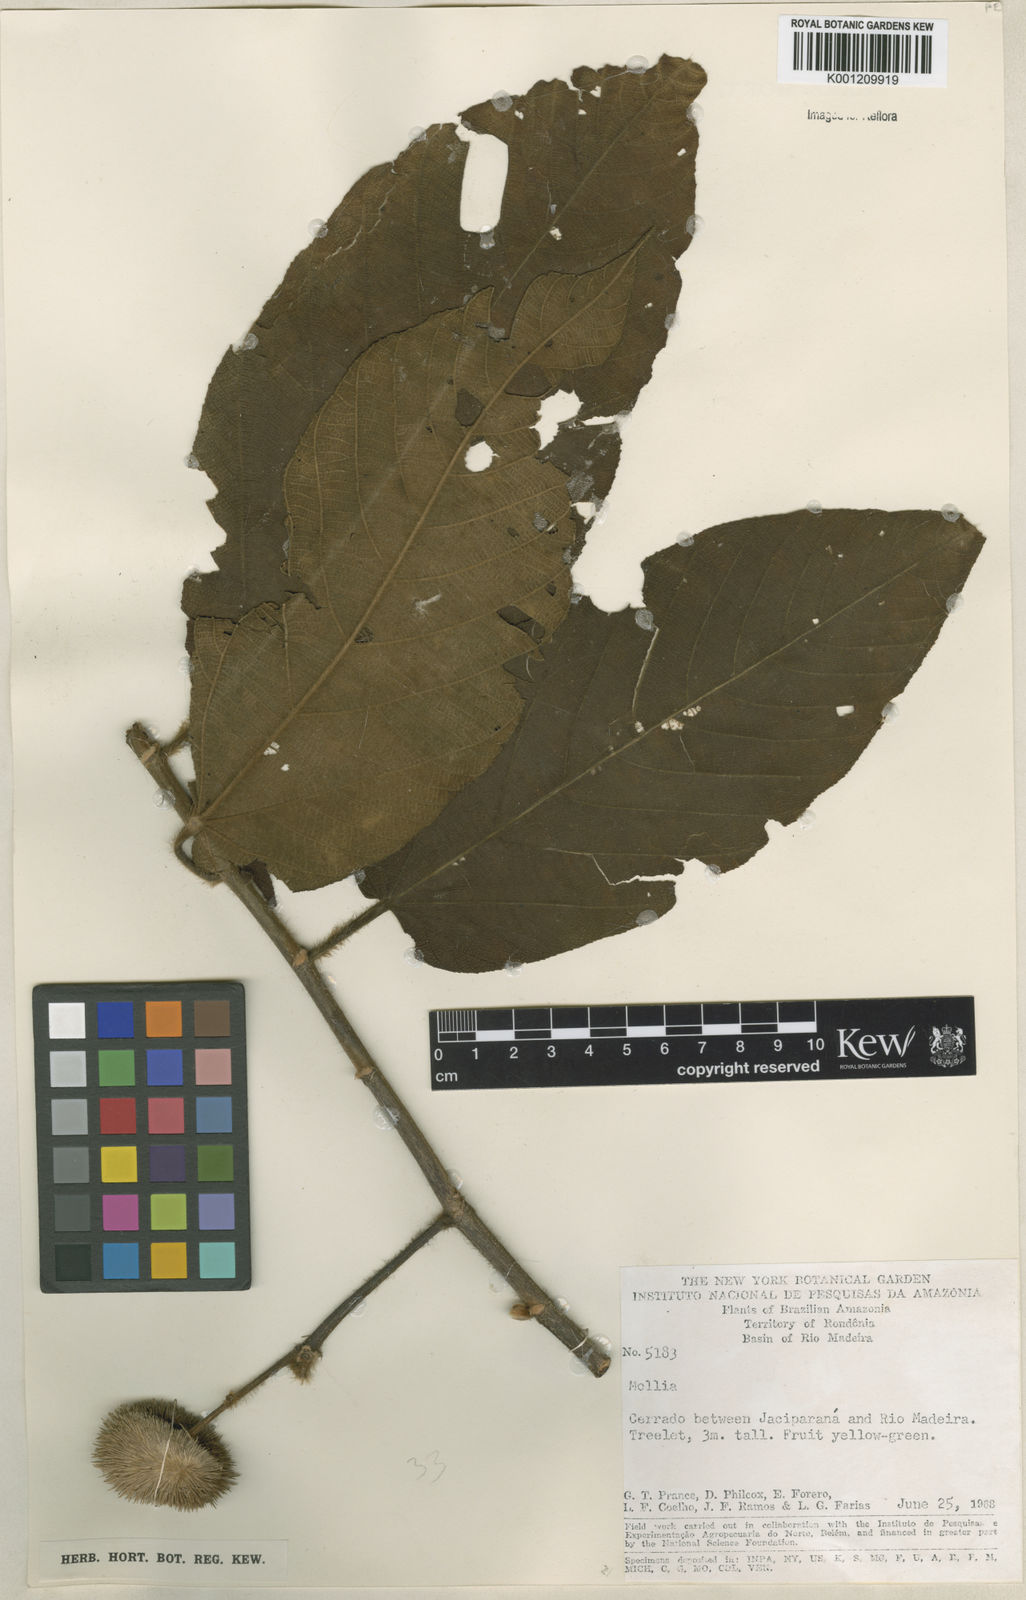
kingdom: Plantae
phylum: Tracheophyta
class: Magnoliopsida
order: Malvales
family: Malvaceae
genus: Apeiba
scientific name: Apeiba tibourbou
